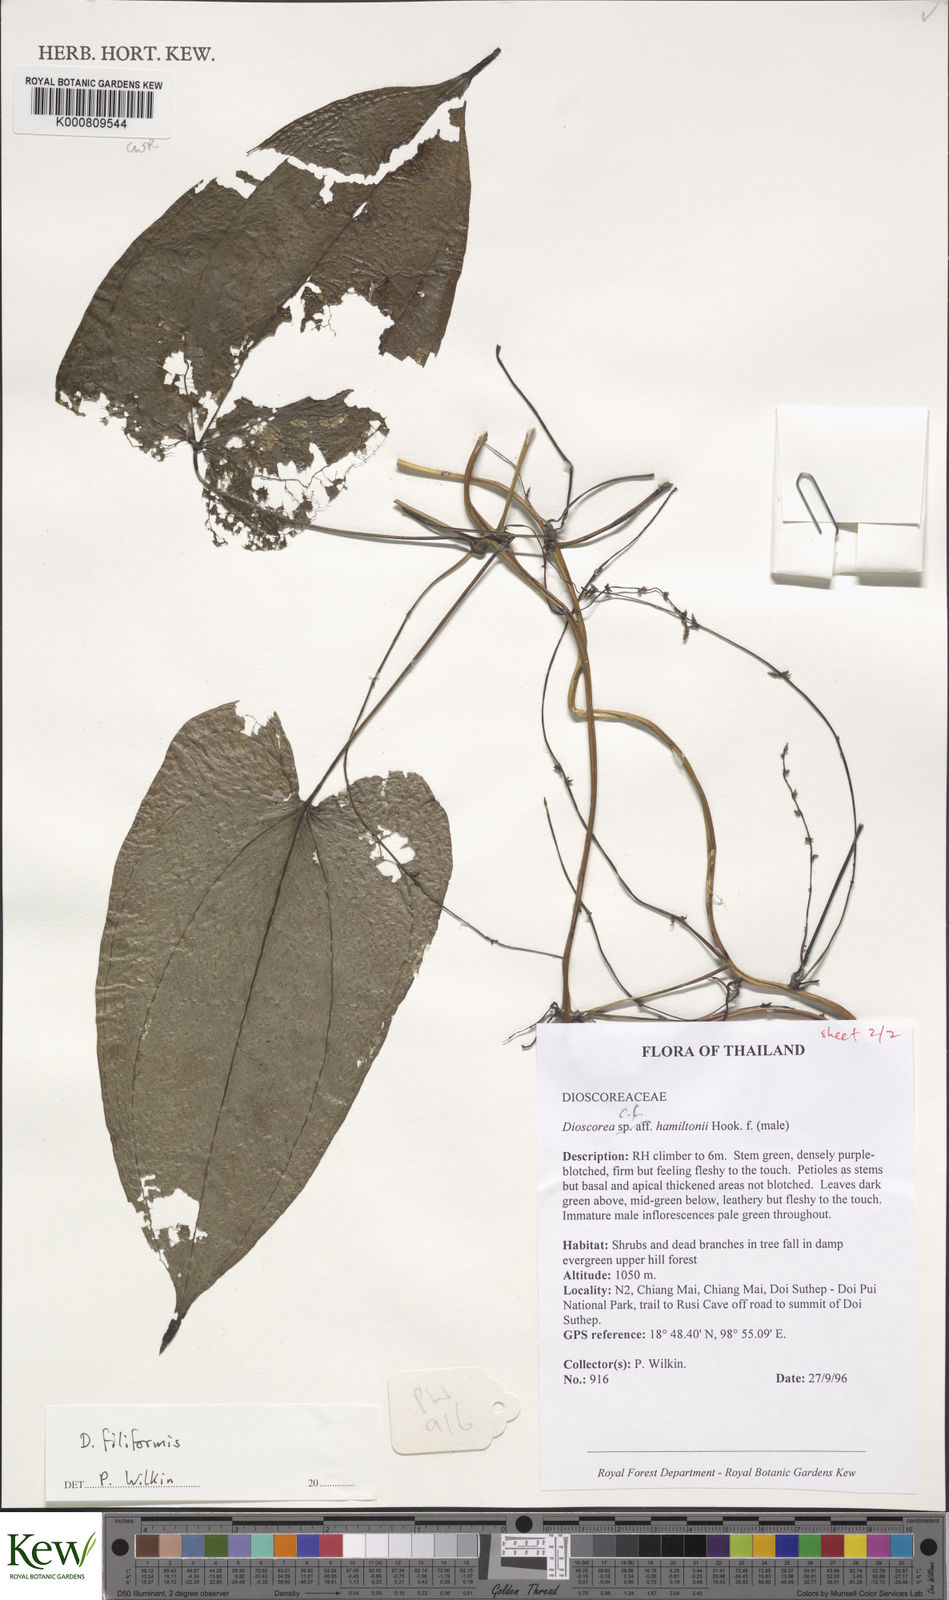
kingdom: Plantae
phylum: Tracheophyta
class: Liliopsida
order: Dioscoreales
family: Dioscoreaceae
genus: Dioscorea
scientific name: Dioscorea filiformis
